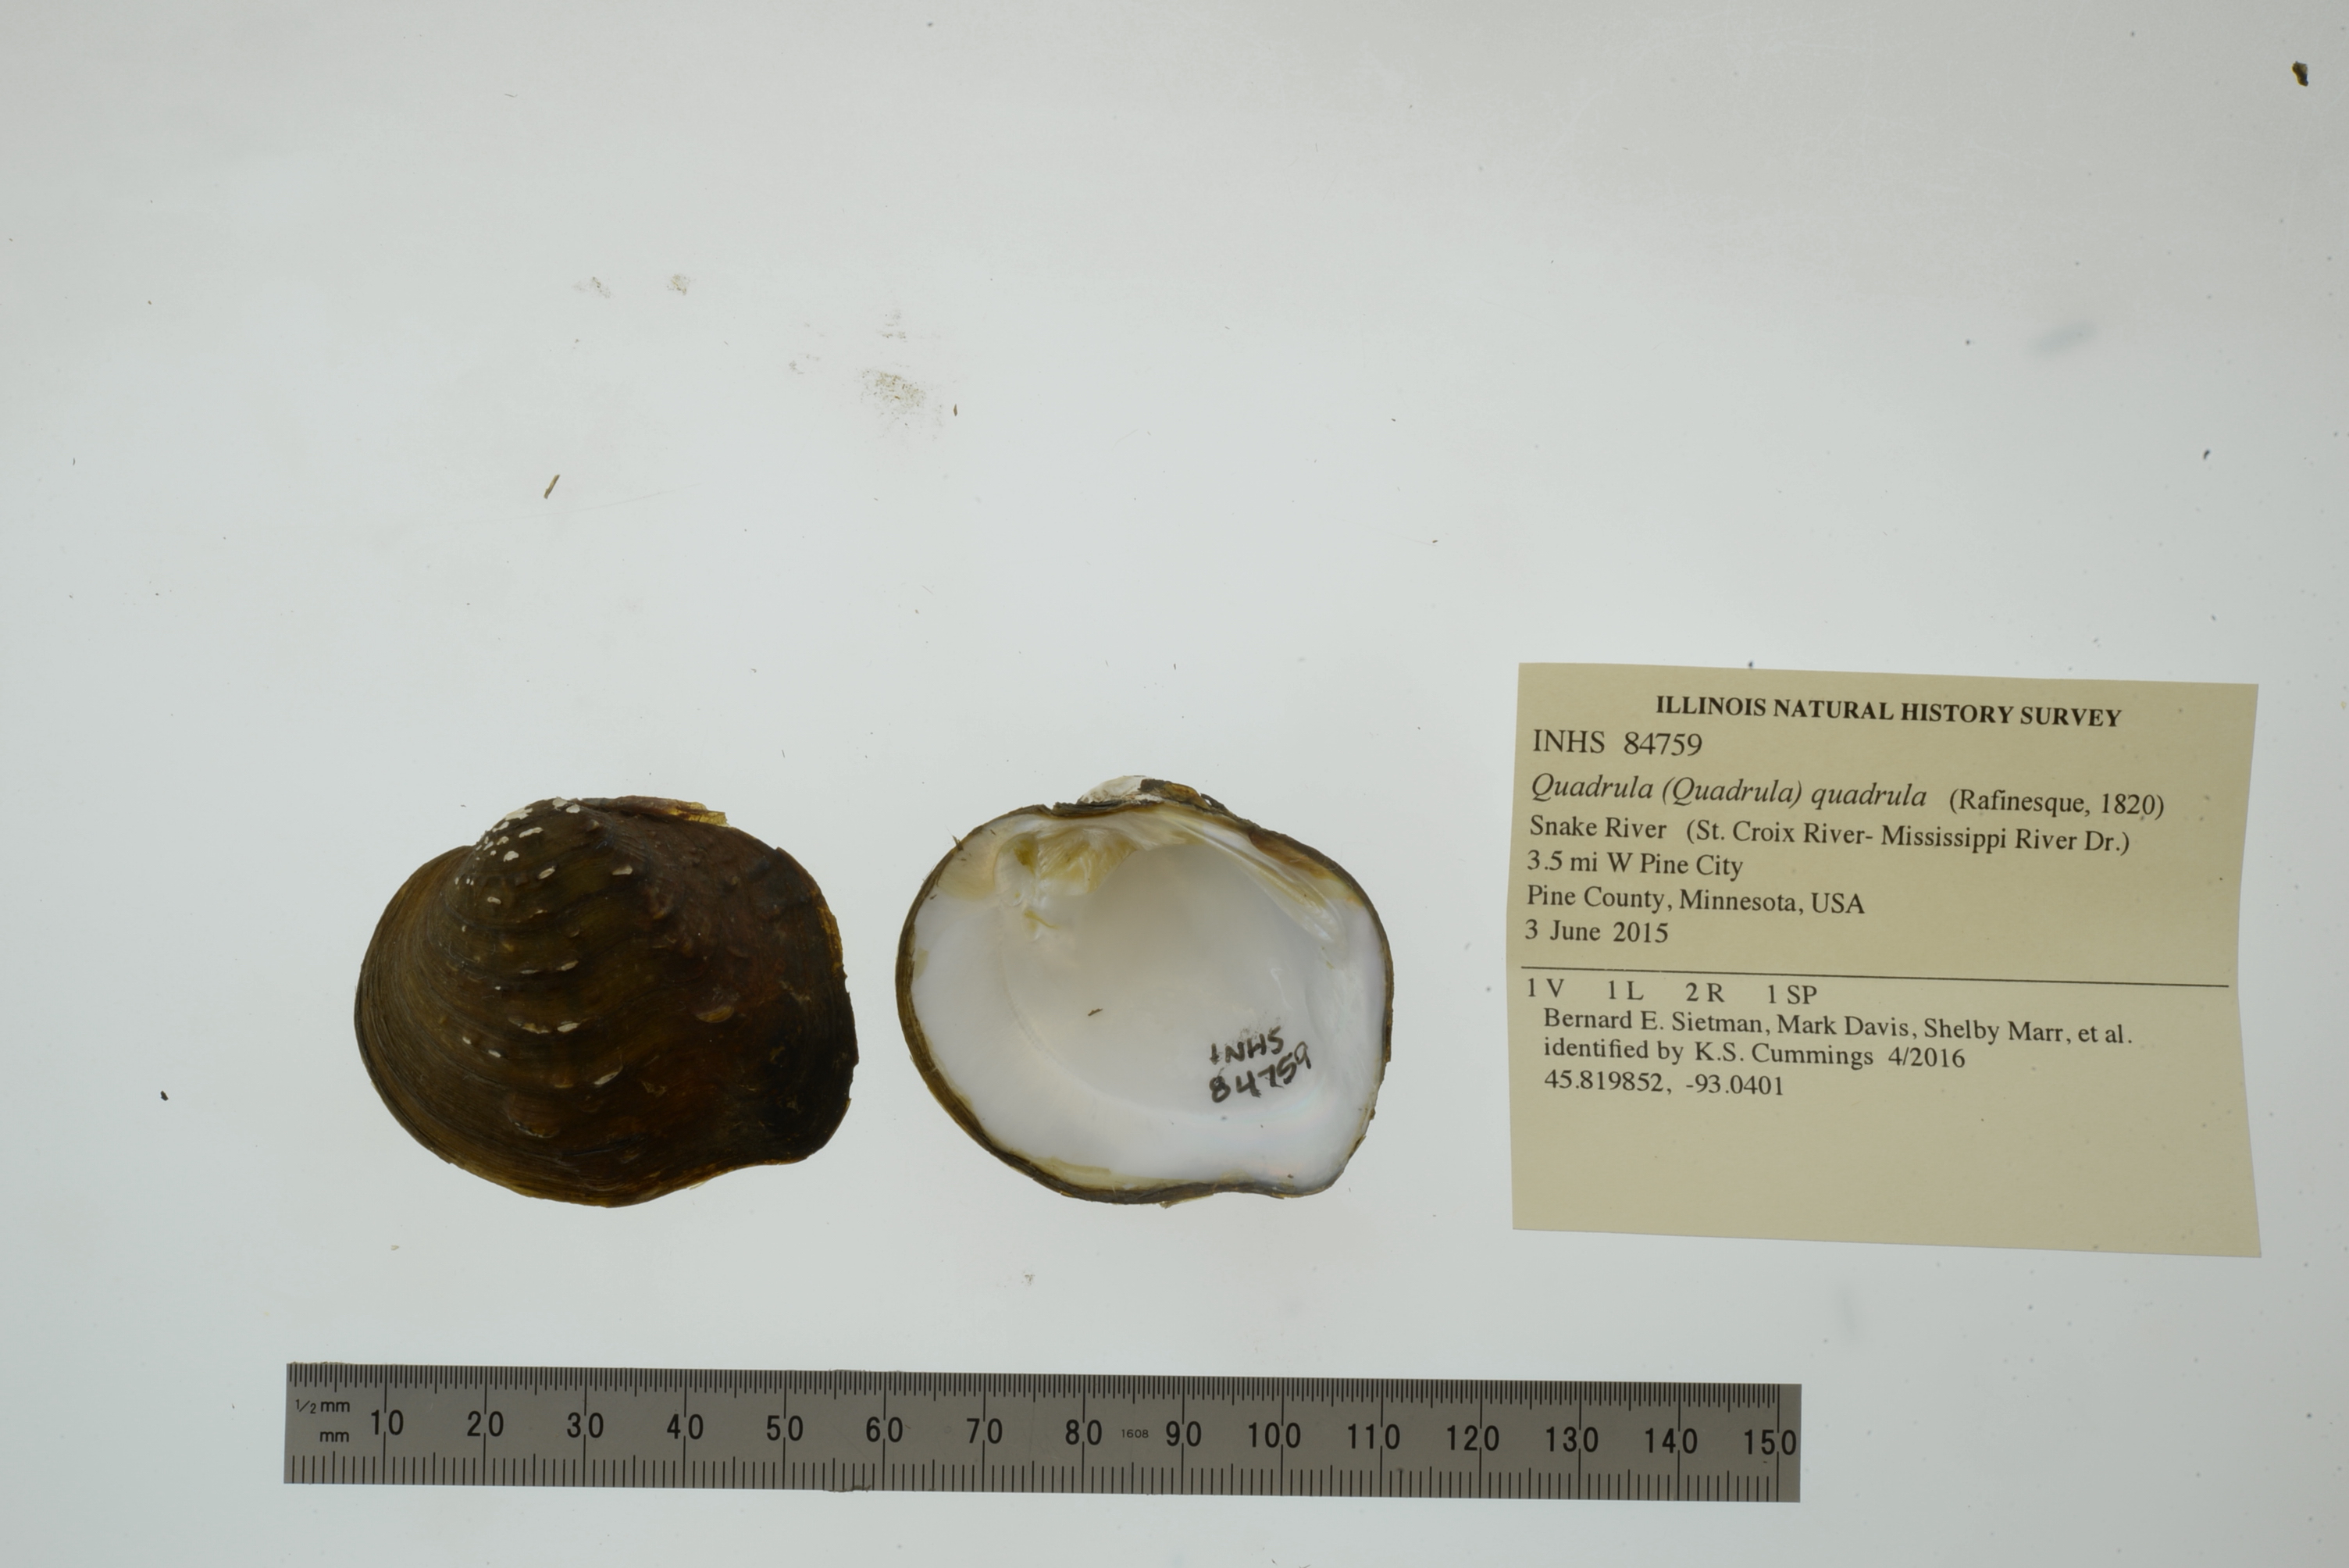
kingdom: Animalia
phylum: Mollusca
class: Bivalvia
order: Unionida
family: Unionidae
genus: Quadrula
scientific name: Quadrula quadrula
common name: Mapleleaf
